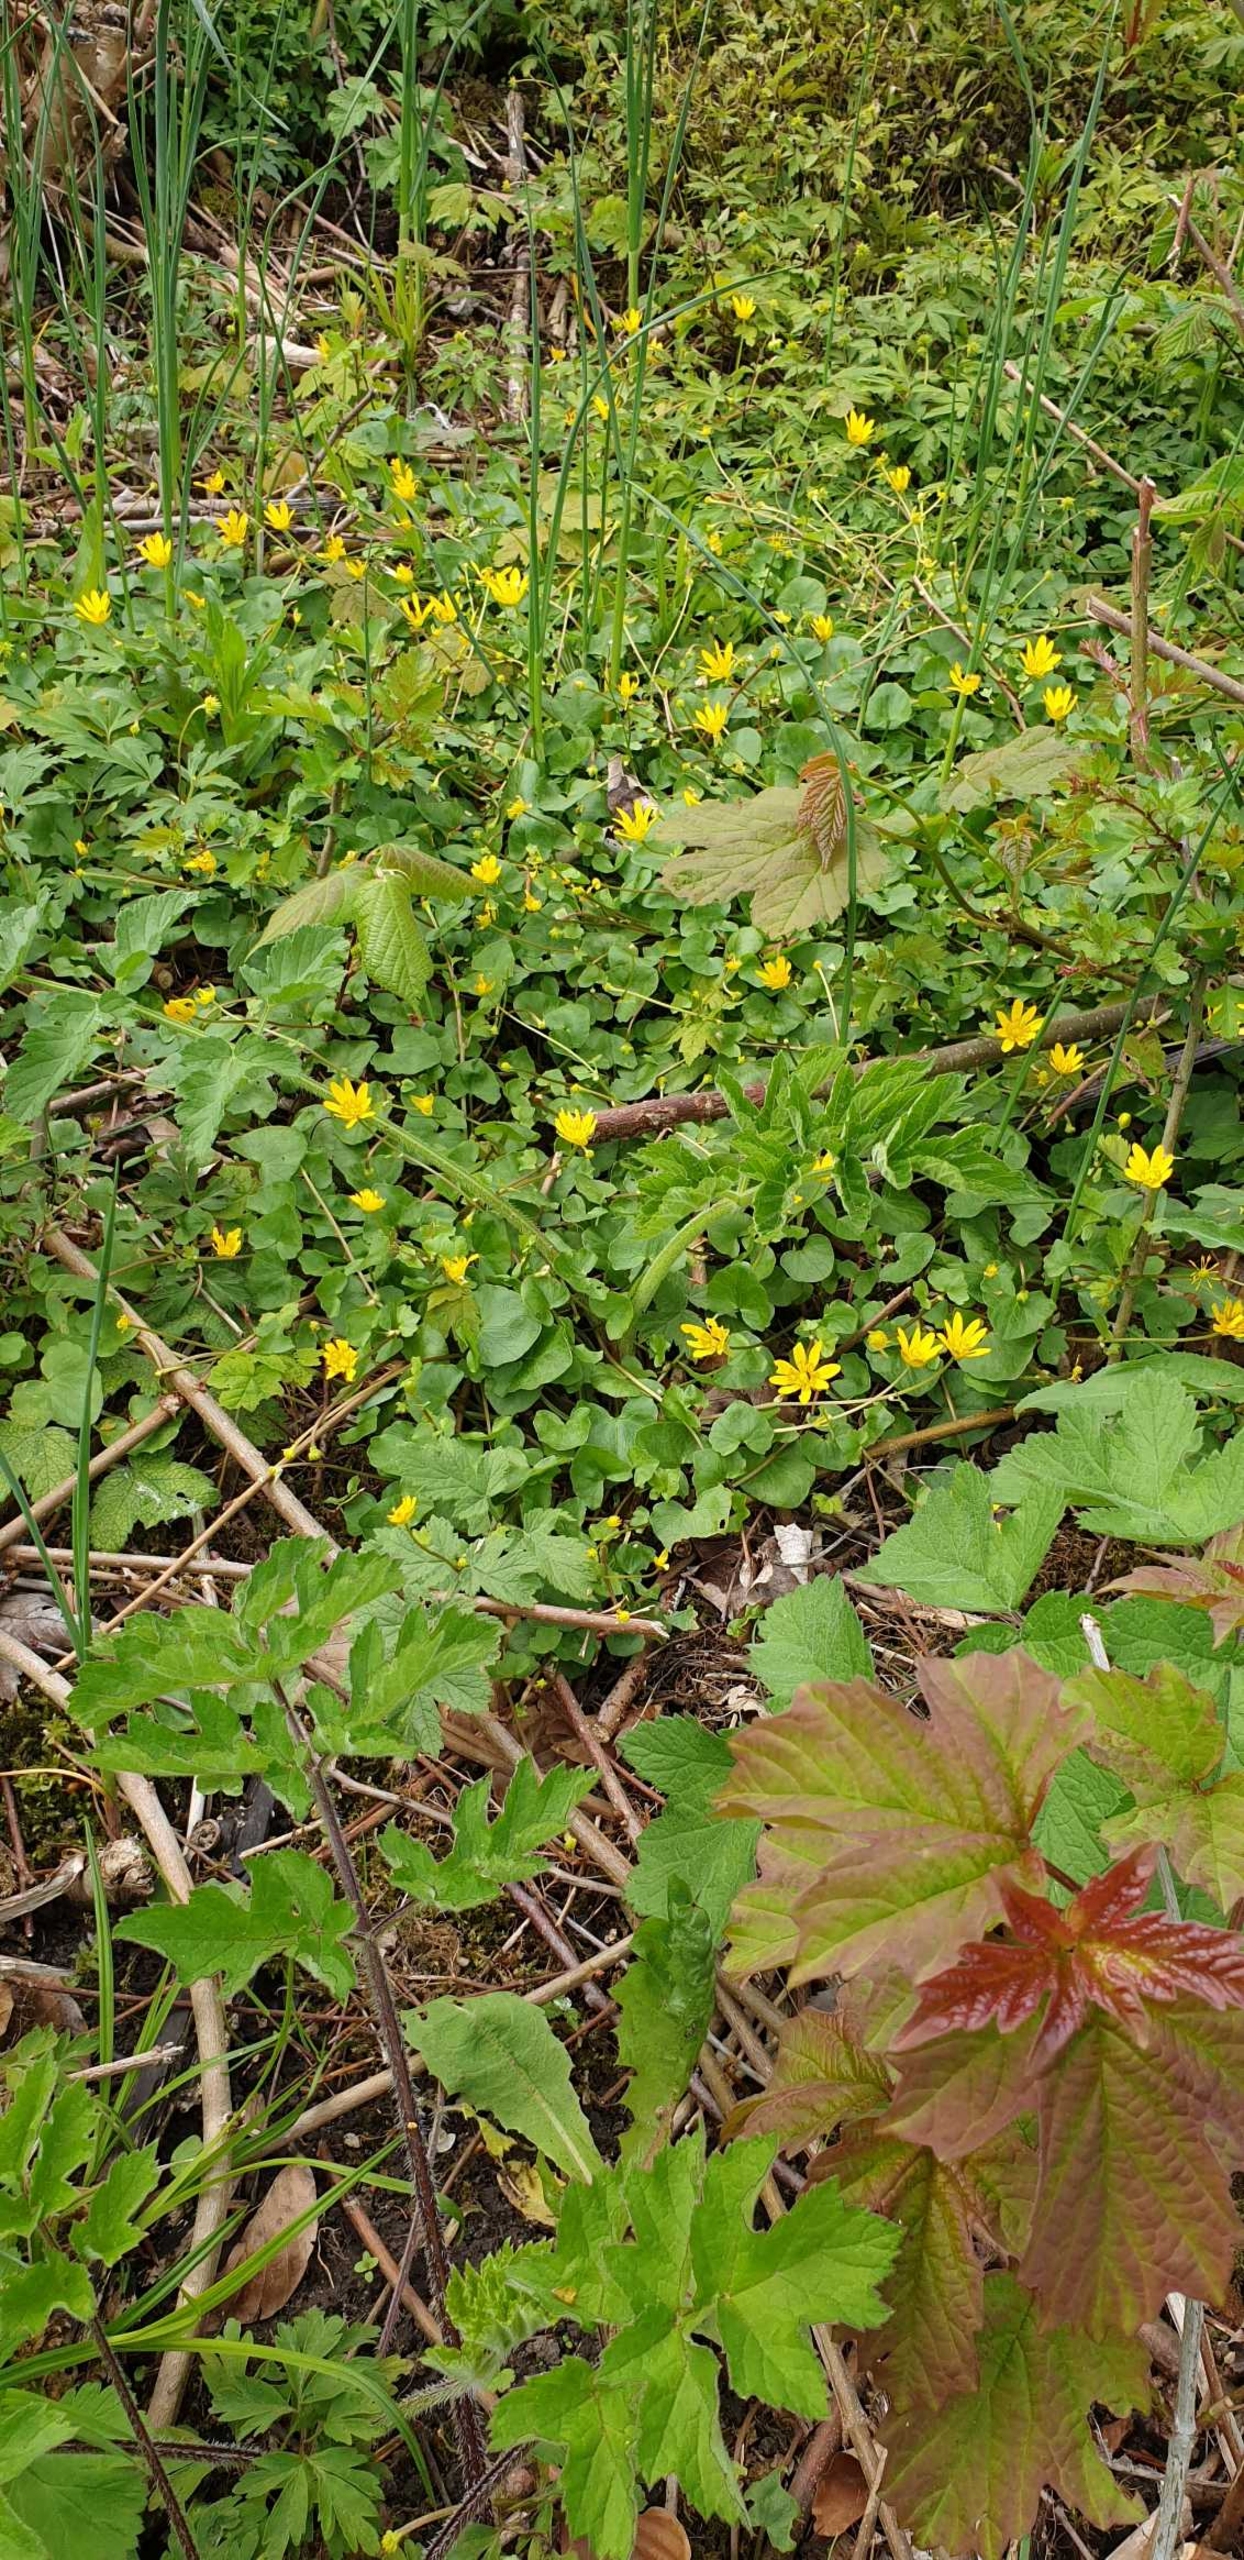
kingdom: Plantae
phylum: Tracheophyta
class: Magnoliopsida
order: Ranunculales
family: Ranunculaceae
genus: Ficaria
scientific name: Ficaria verna
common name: Almindelig vorterod
